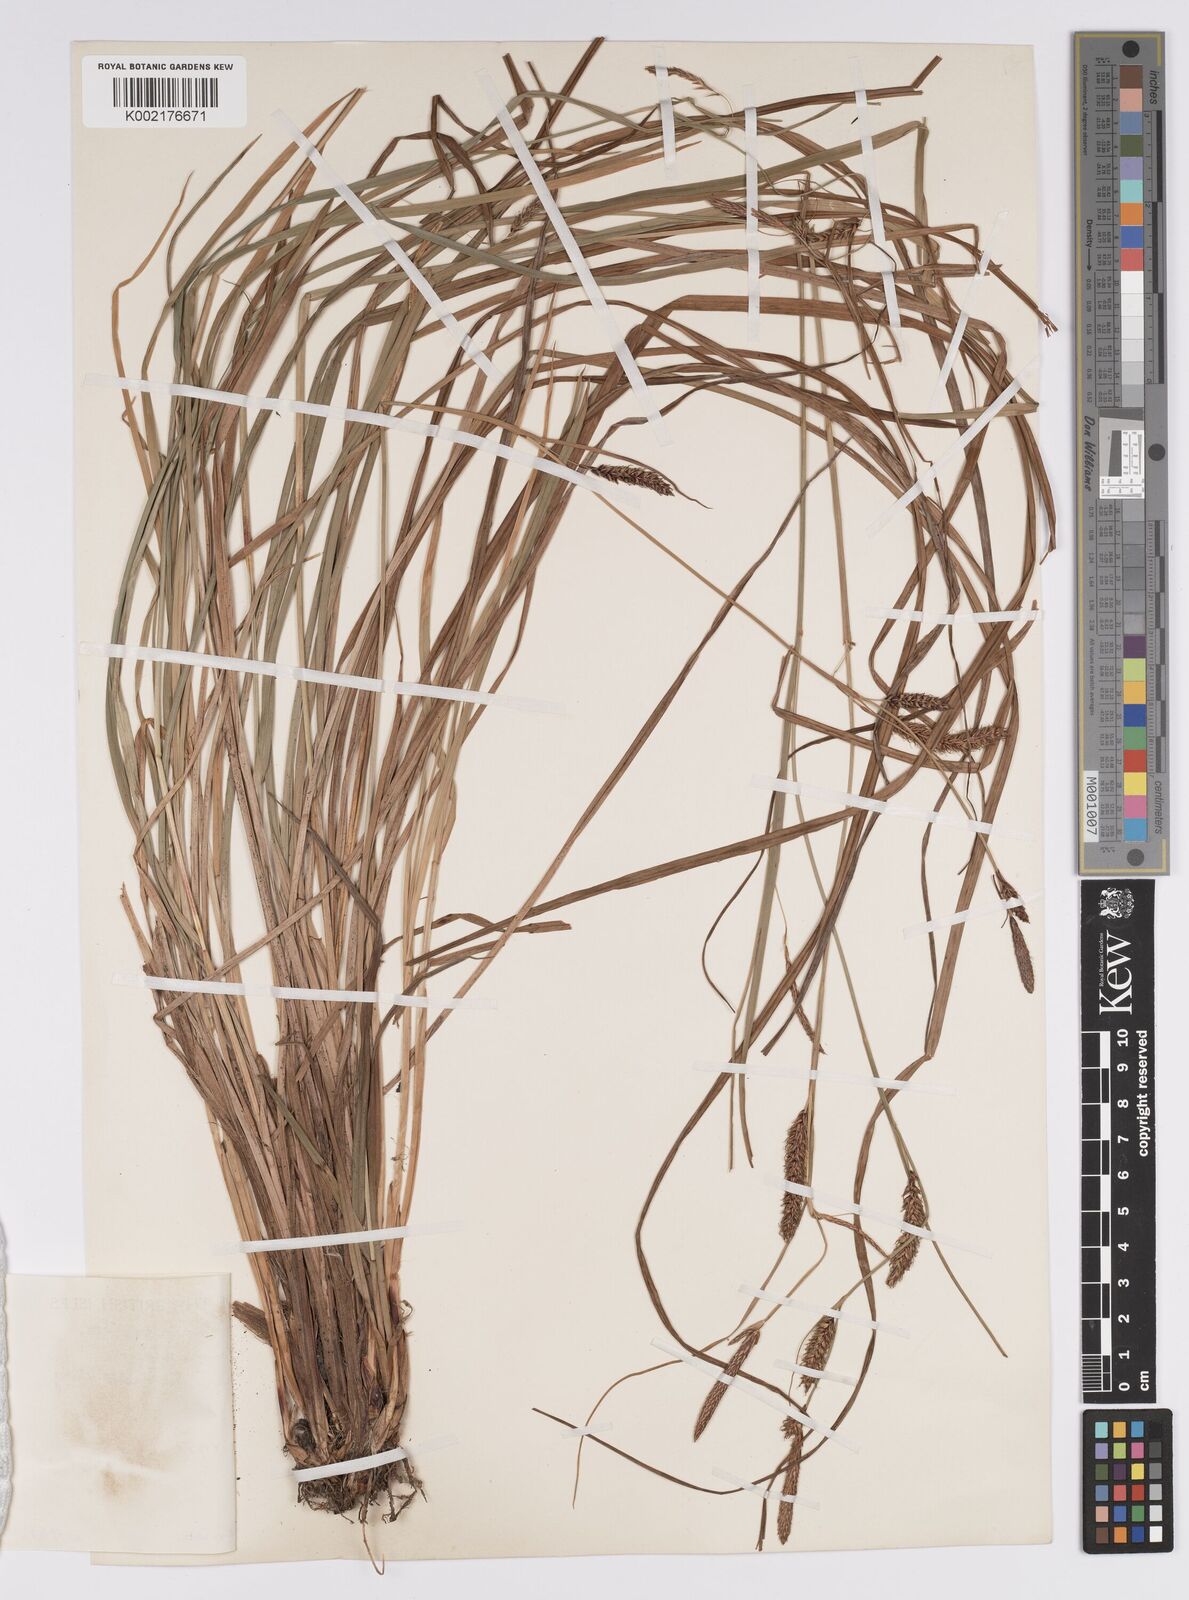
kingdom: Plantae
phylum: Tracheophyta
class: Liliopsida
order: Poales
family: Cyperaceae
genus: Carex
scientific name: Carex binervis
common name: Green-ribbed sedge
